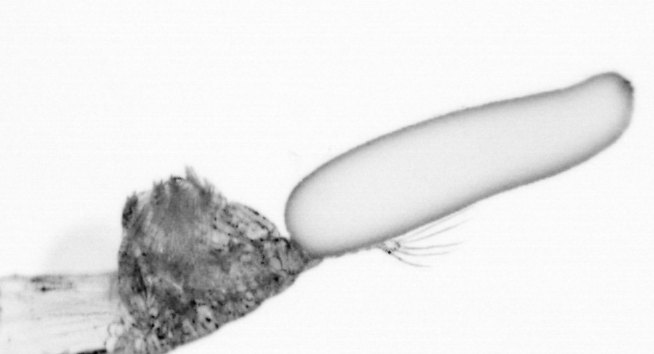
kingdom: Animalia
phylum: Arthropoda
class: Copepoda
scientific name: Copepoda
